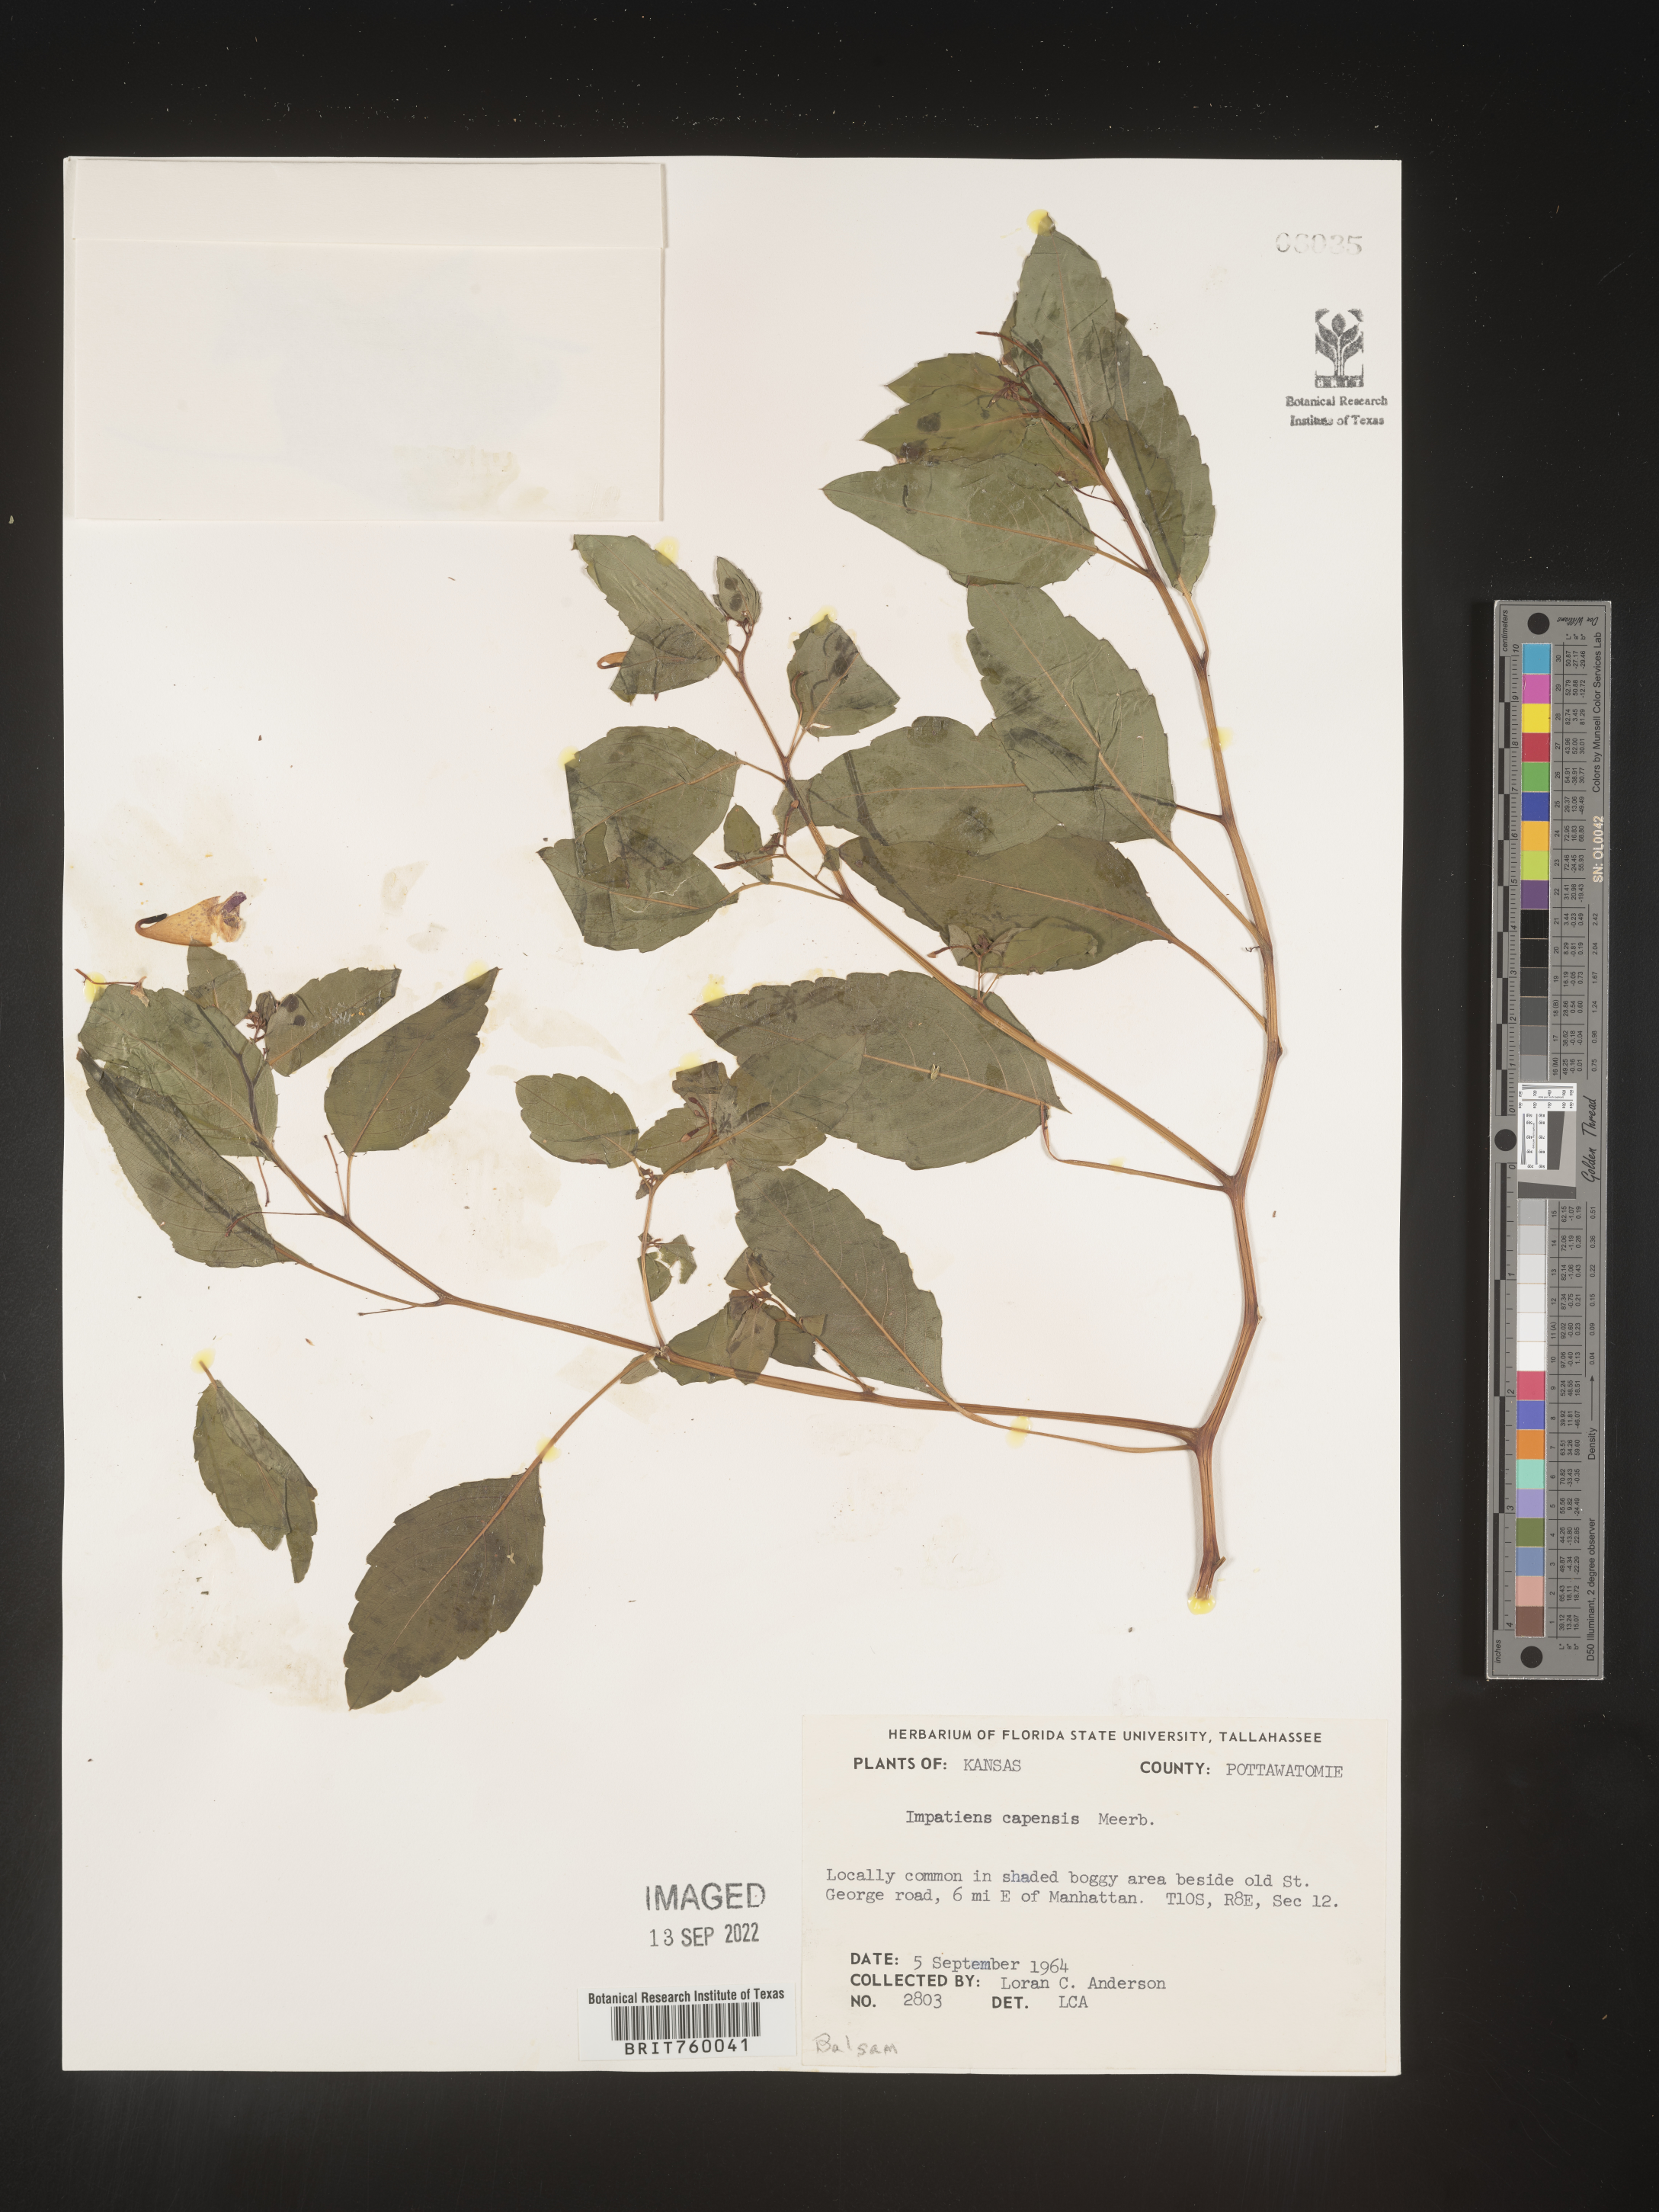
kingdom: Plantae
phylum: Tracheophyta
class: Magnoliopsida
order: Ericales
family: Balsaminaceae
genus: Impatiens
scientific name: Impatiens capensis
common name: Orange balsam
